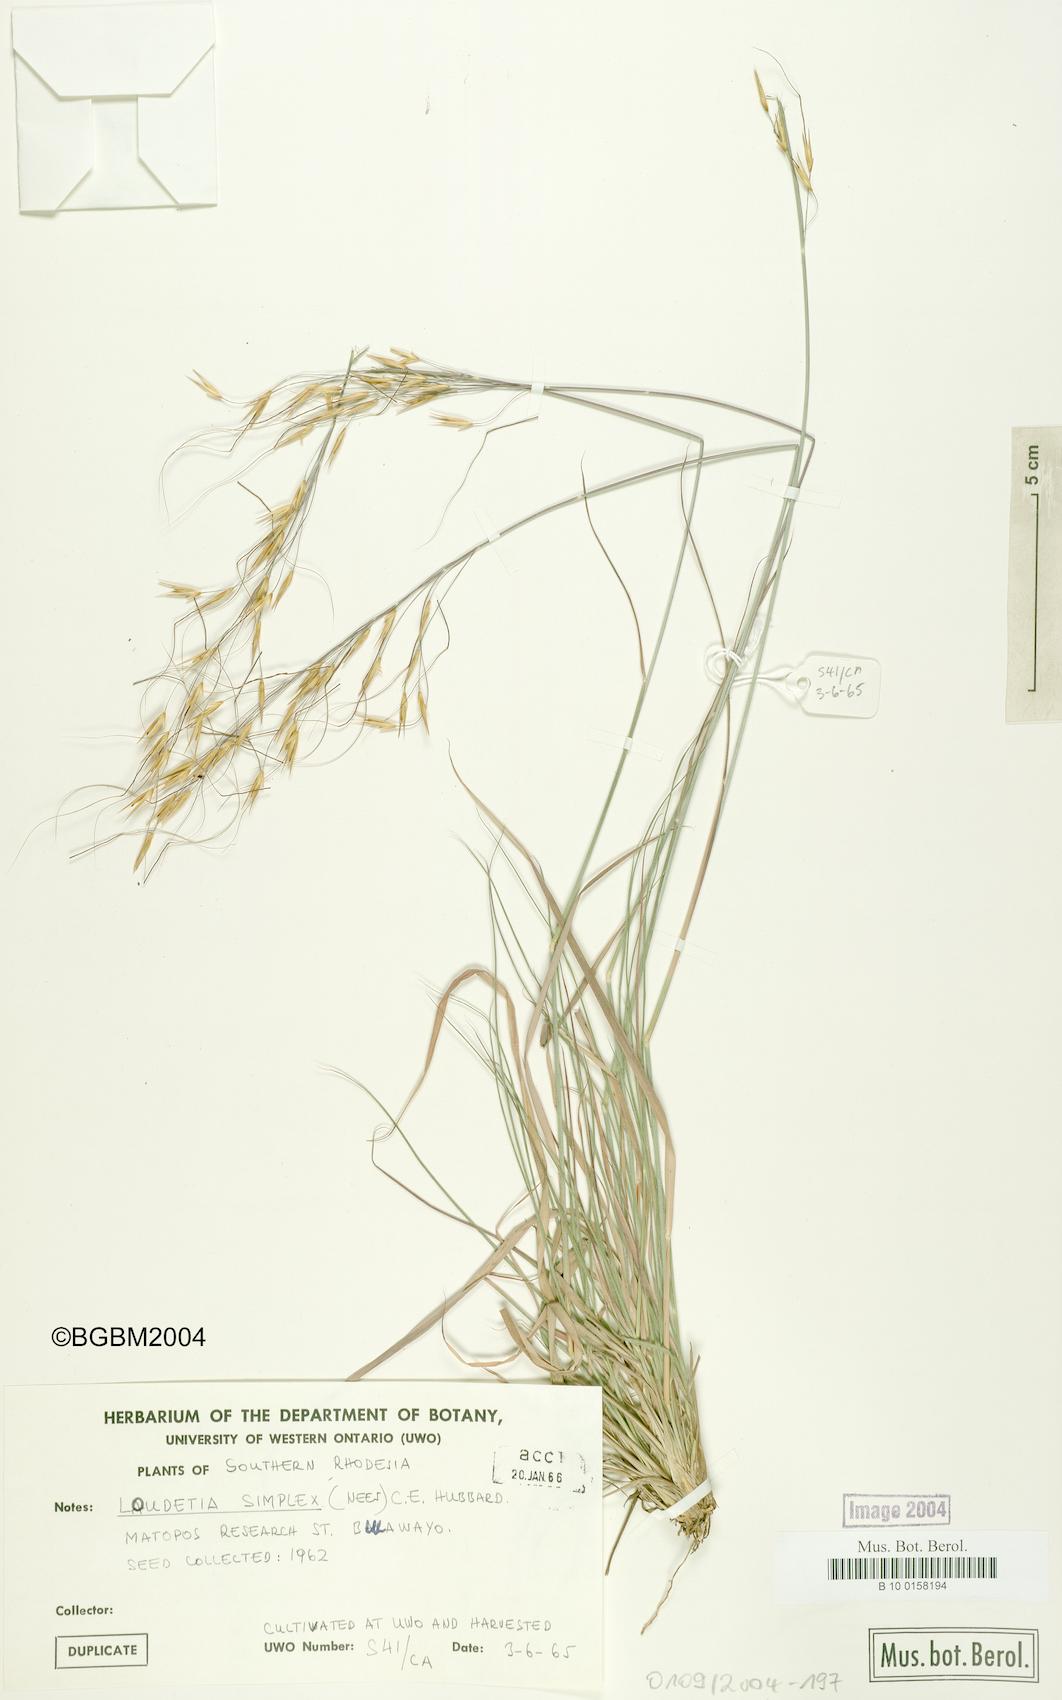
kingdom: Plantae
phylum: Tracheophyta
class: Liliopsida
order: Poales
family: Poaceae
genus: Loudetia
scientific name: Loudetia simplex
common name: Common russet grass
